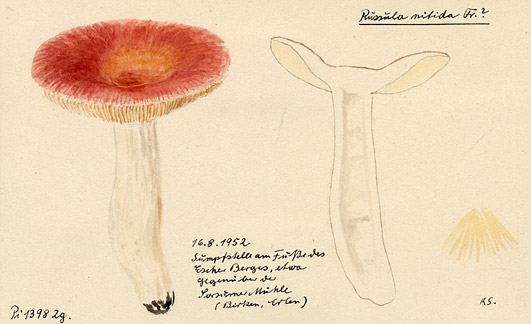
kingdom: Fungi
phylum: Basidiomycota
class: Agaricomycetes
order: Russulales
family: Russulaceae
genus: Russula
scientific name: Russula nitida
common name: Purple swamp brittlegill
